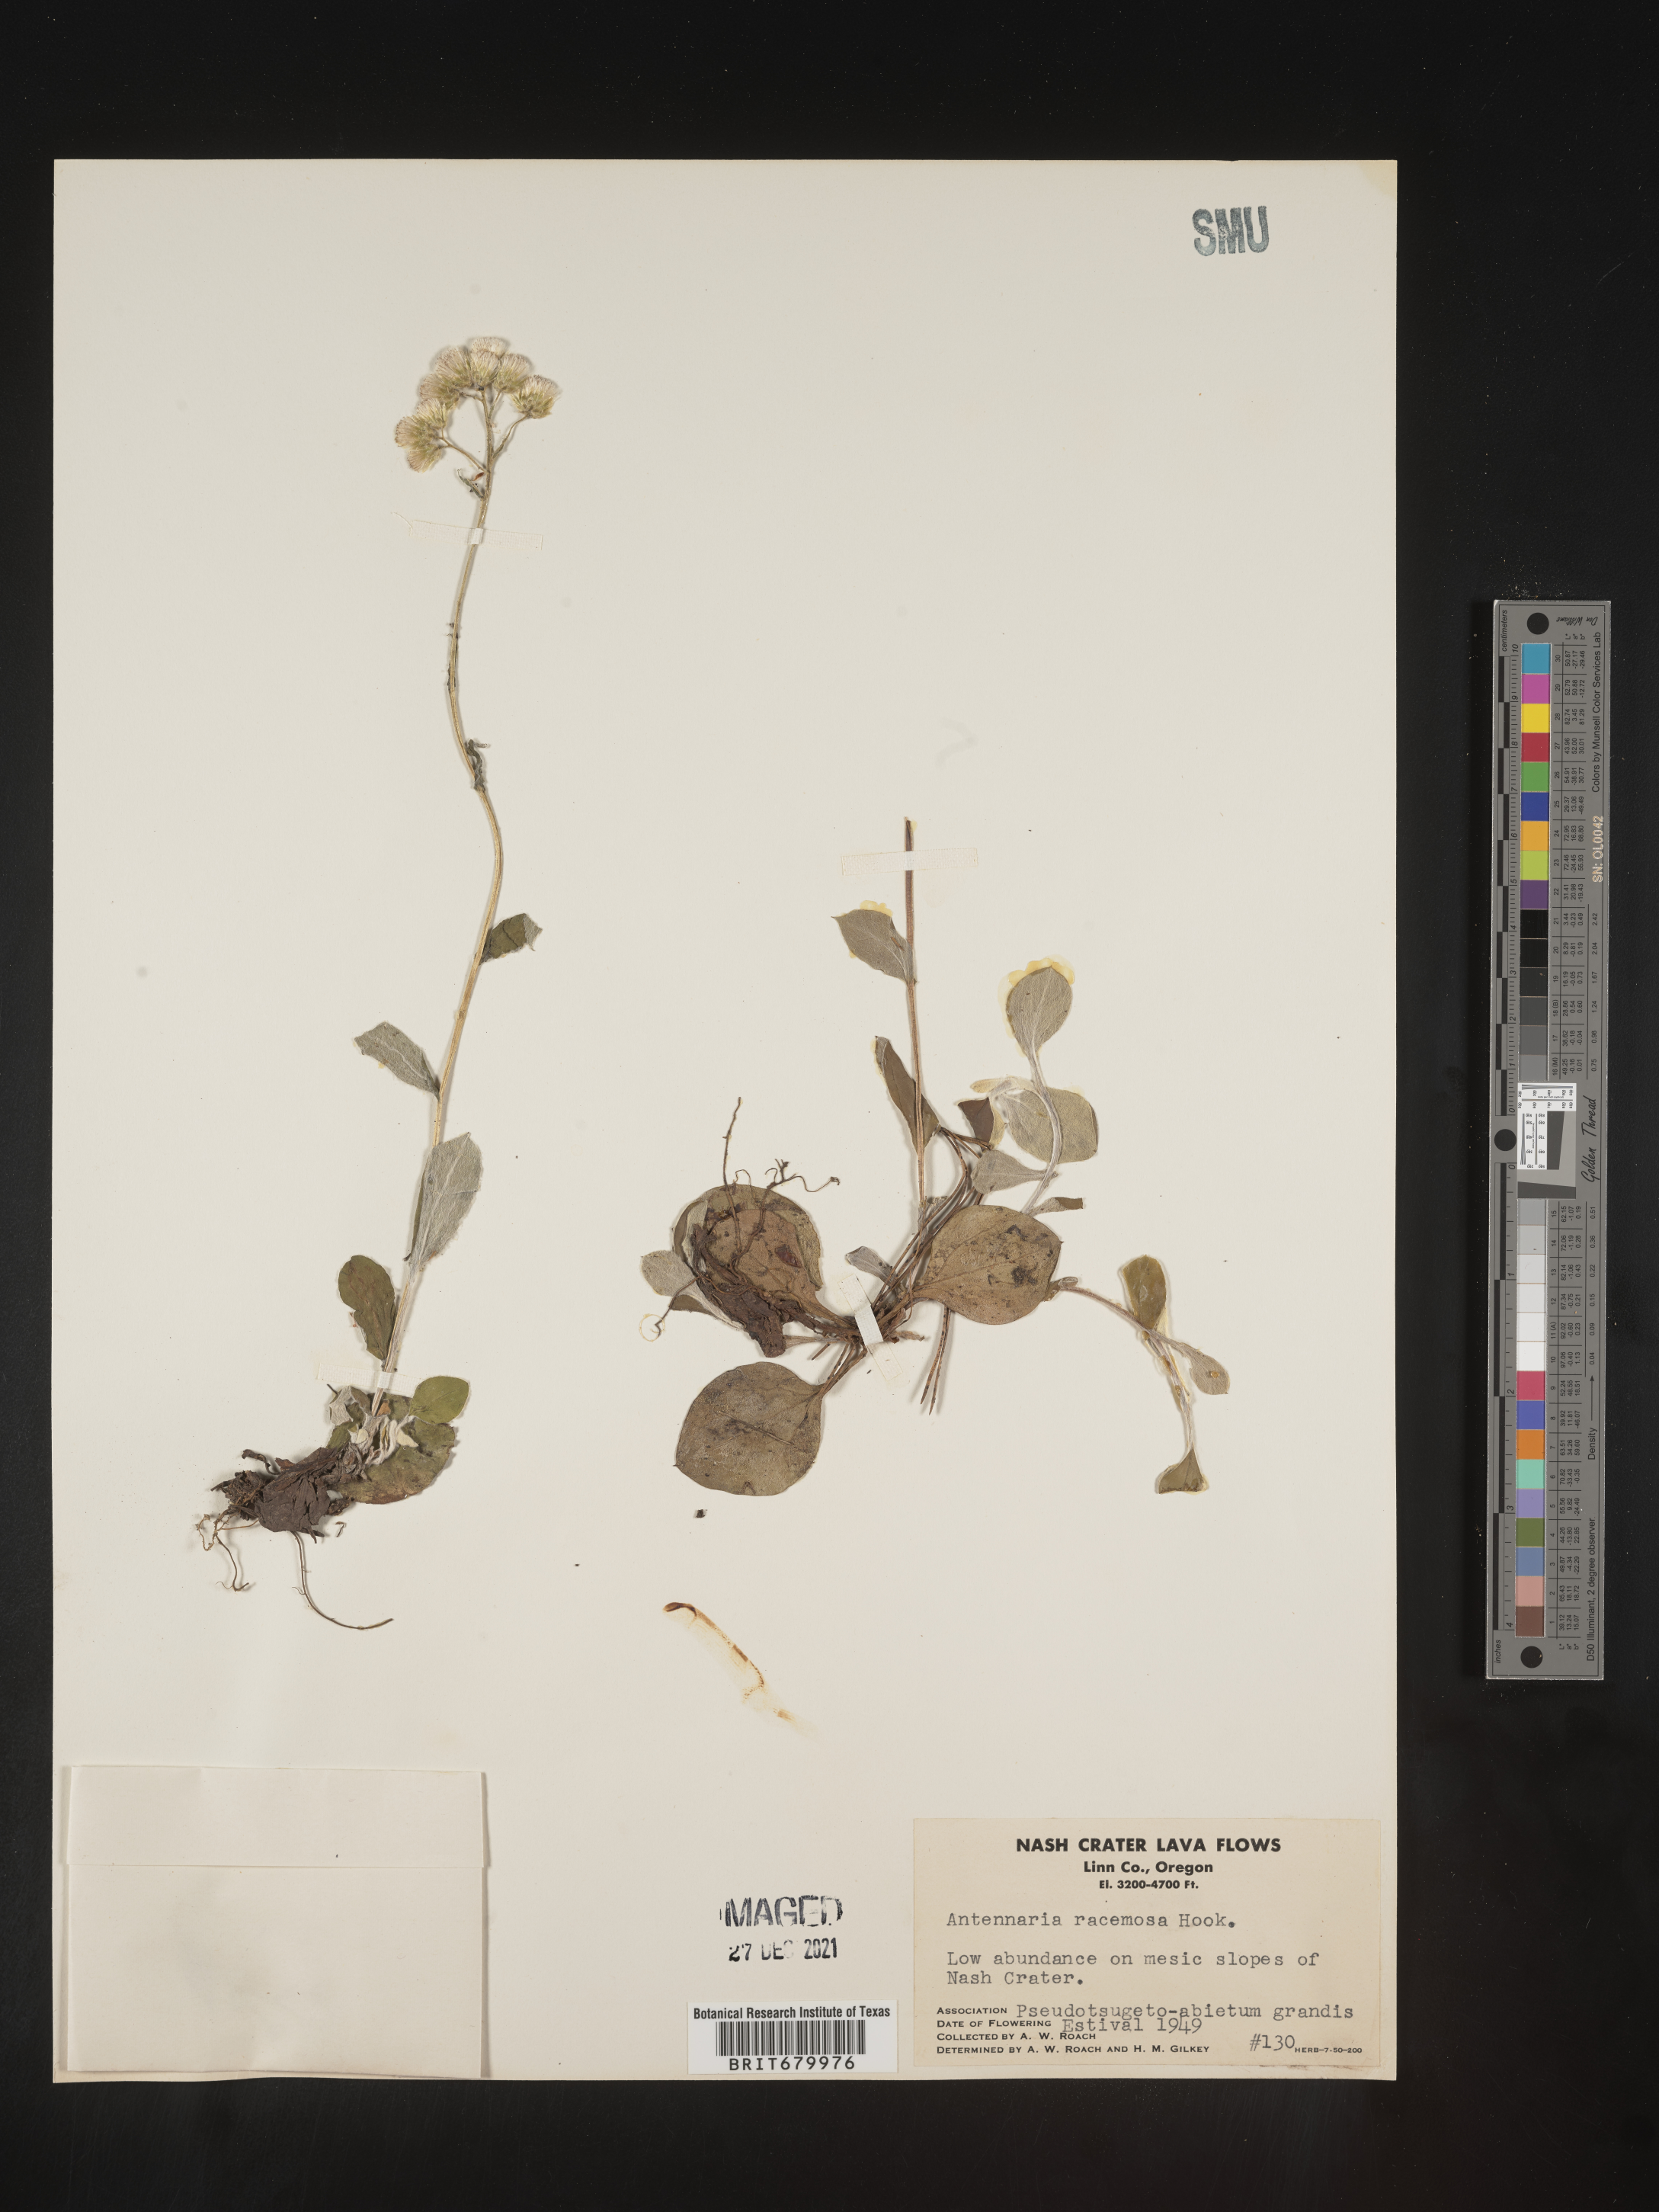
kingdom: Plantae
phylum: Tracheophyta
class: Magnoliopsida
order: Asterales
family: Asteraceae
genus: Antennaria
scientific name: Antennaria racemosa
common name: Racemose pussytoes
